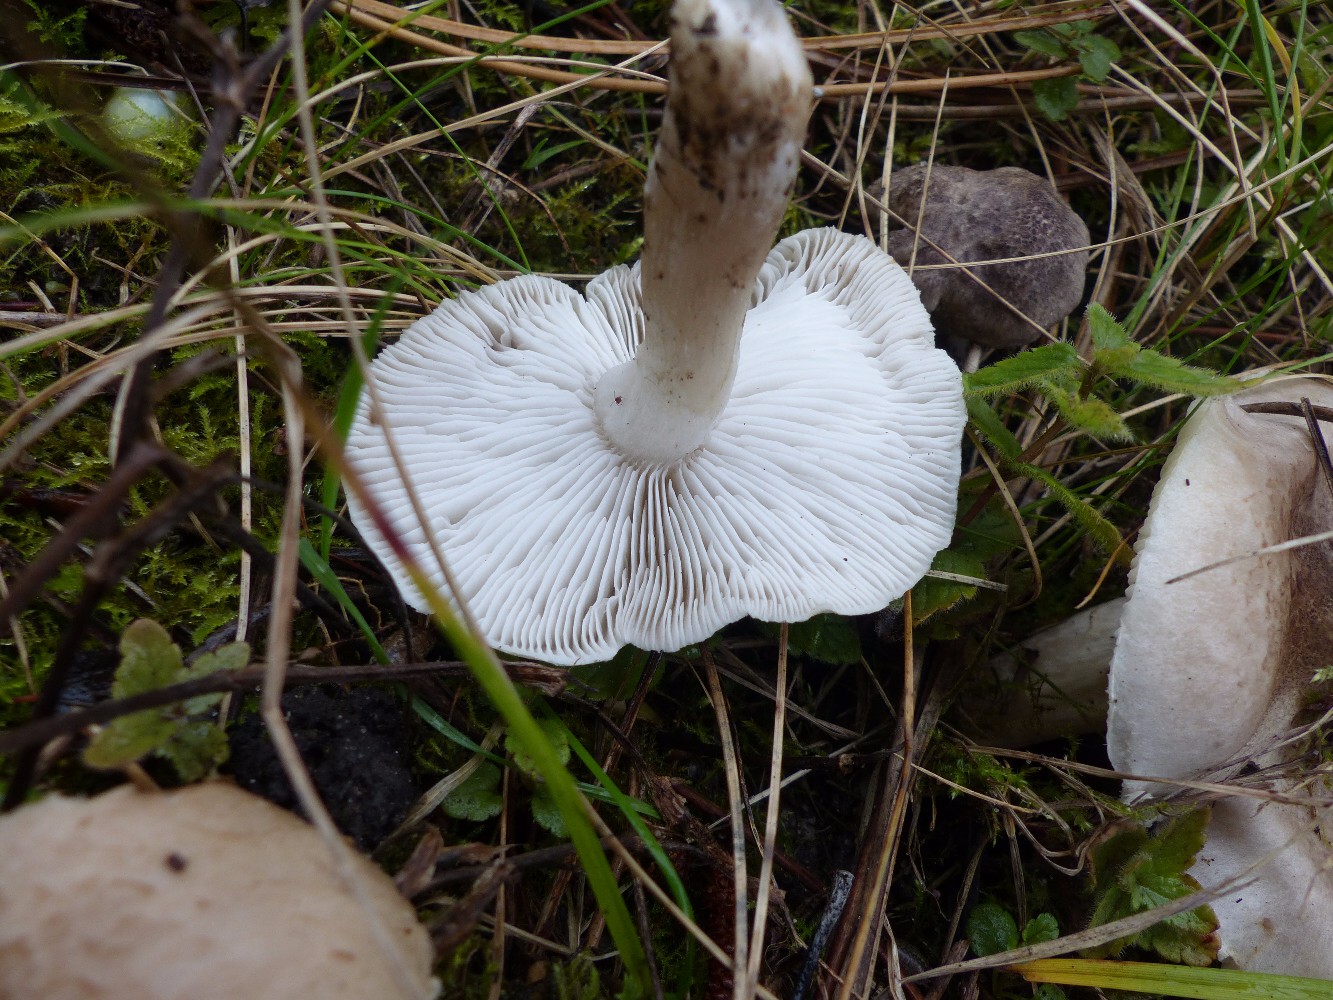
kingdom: Fungi
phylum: Basidiomycota
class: Agaricomycetes
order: Agaricales
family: Tricholomataceae
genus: Tricholoma
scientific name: Tricholoma scalpturatum
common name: gulplettet ridderhat
